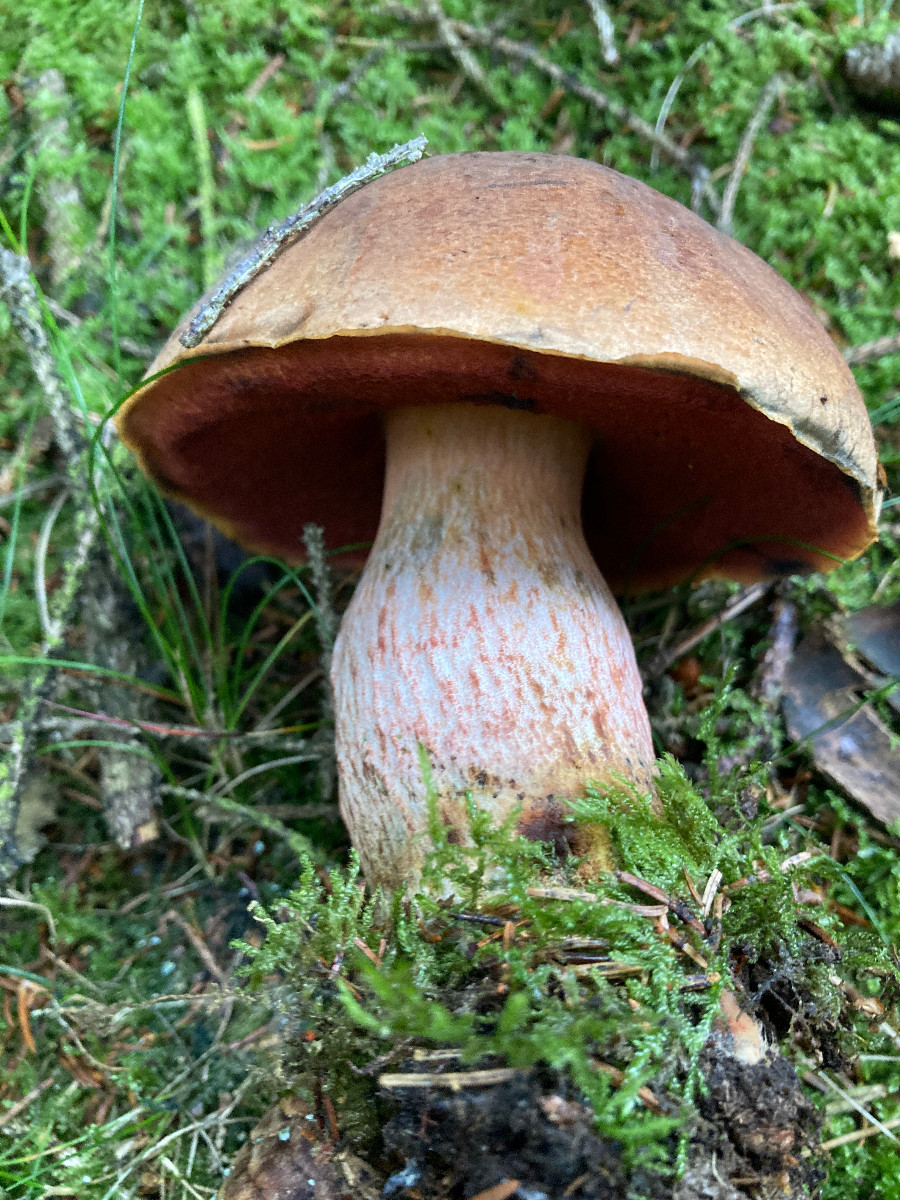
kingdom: Fungi
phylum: Basidiomycota
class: Agaricomycetes
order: Boletales
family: Boletaceae
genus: Neoboletus
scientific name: Neoboletus erythropus
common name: punktstokket indigorørhat
